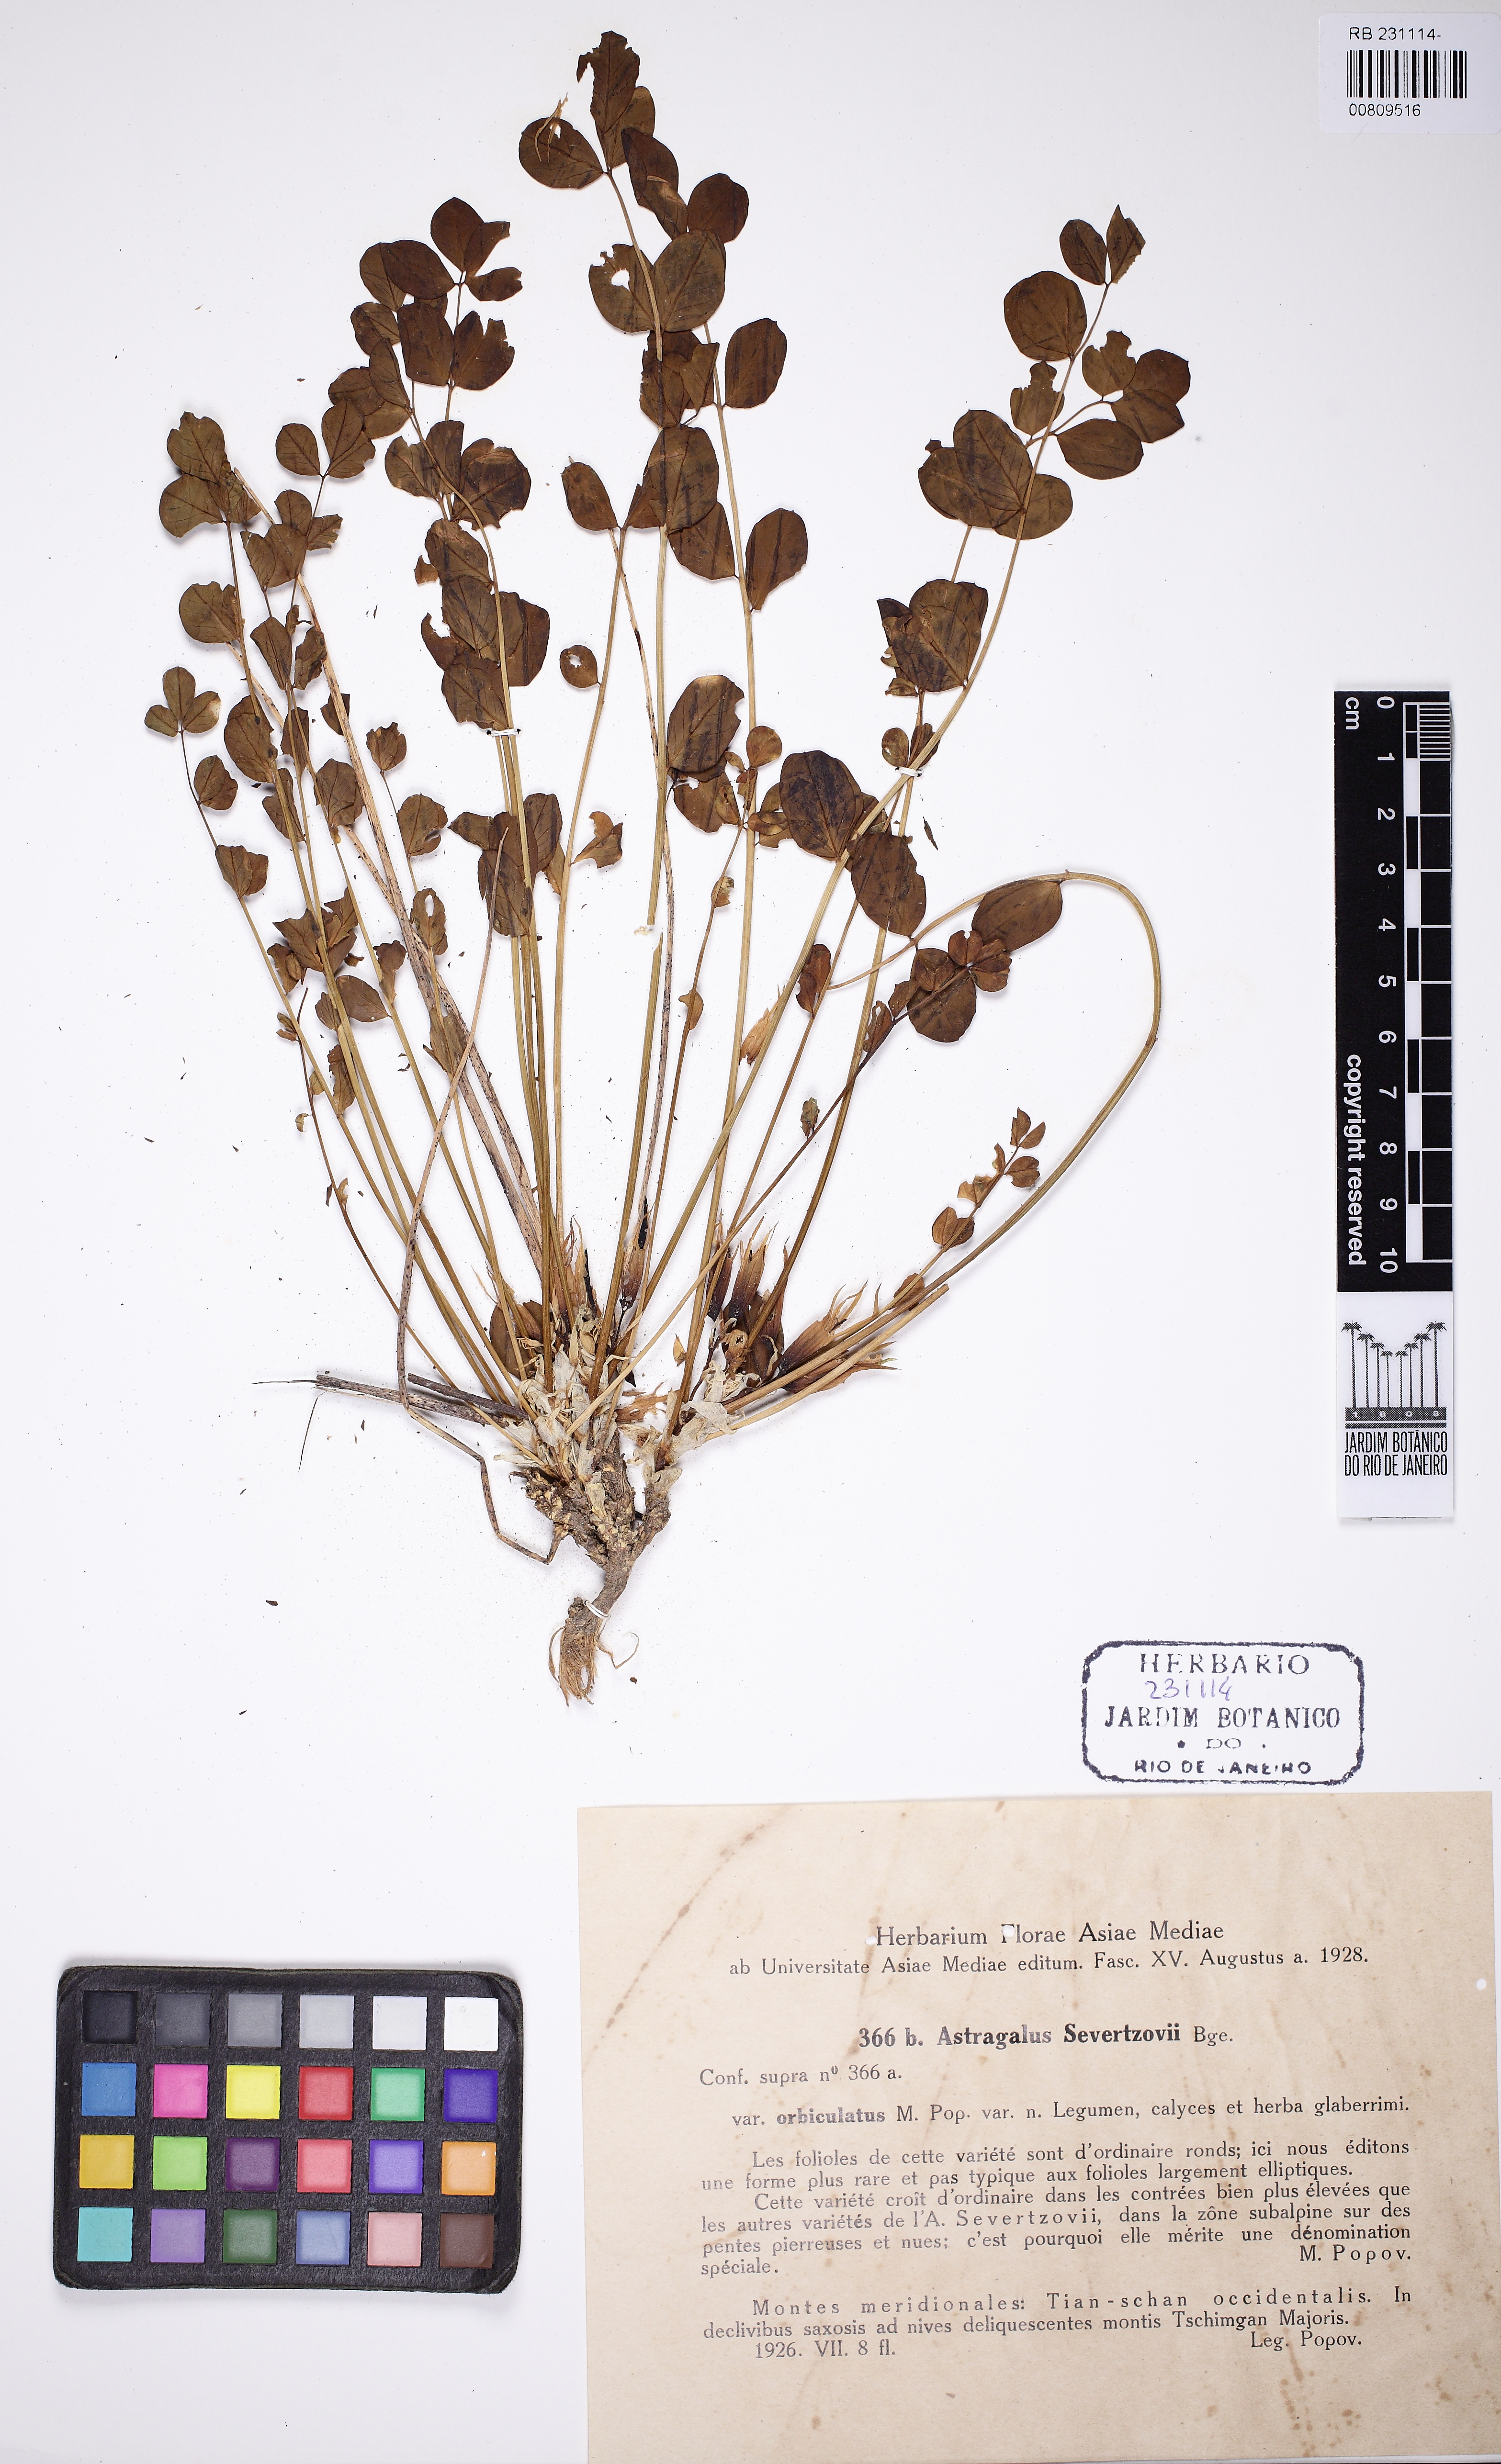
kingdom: Plantae
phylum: Tracheophyta
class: Magnoliopsida
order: Fabales
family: Fabaceae
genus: Astragalus
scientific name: Astragalus sewertzowii
